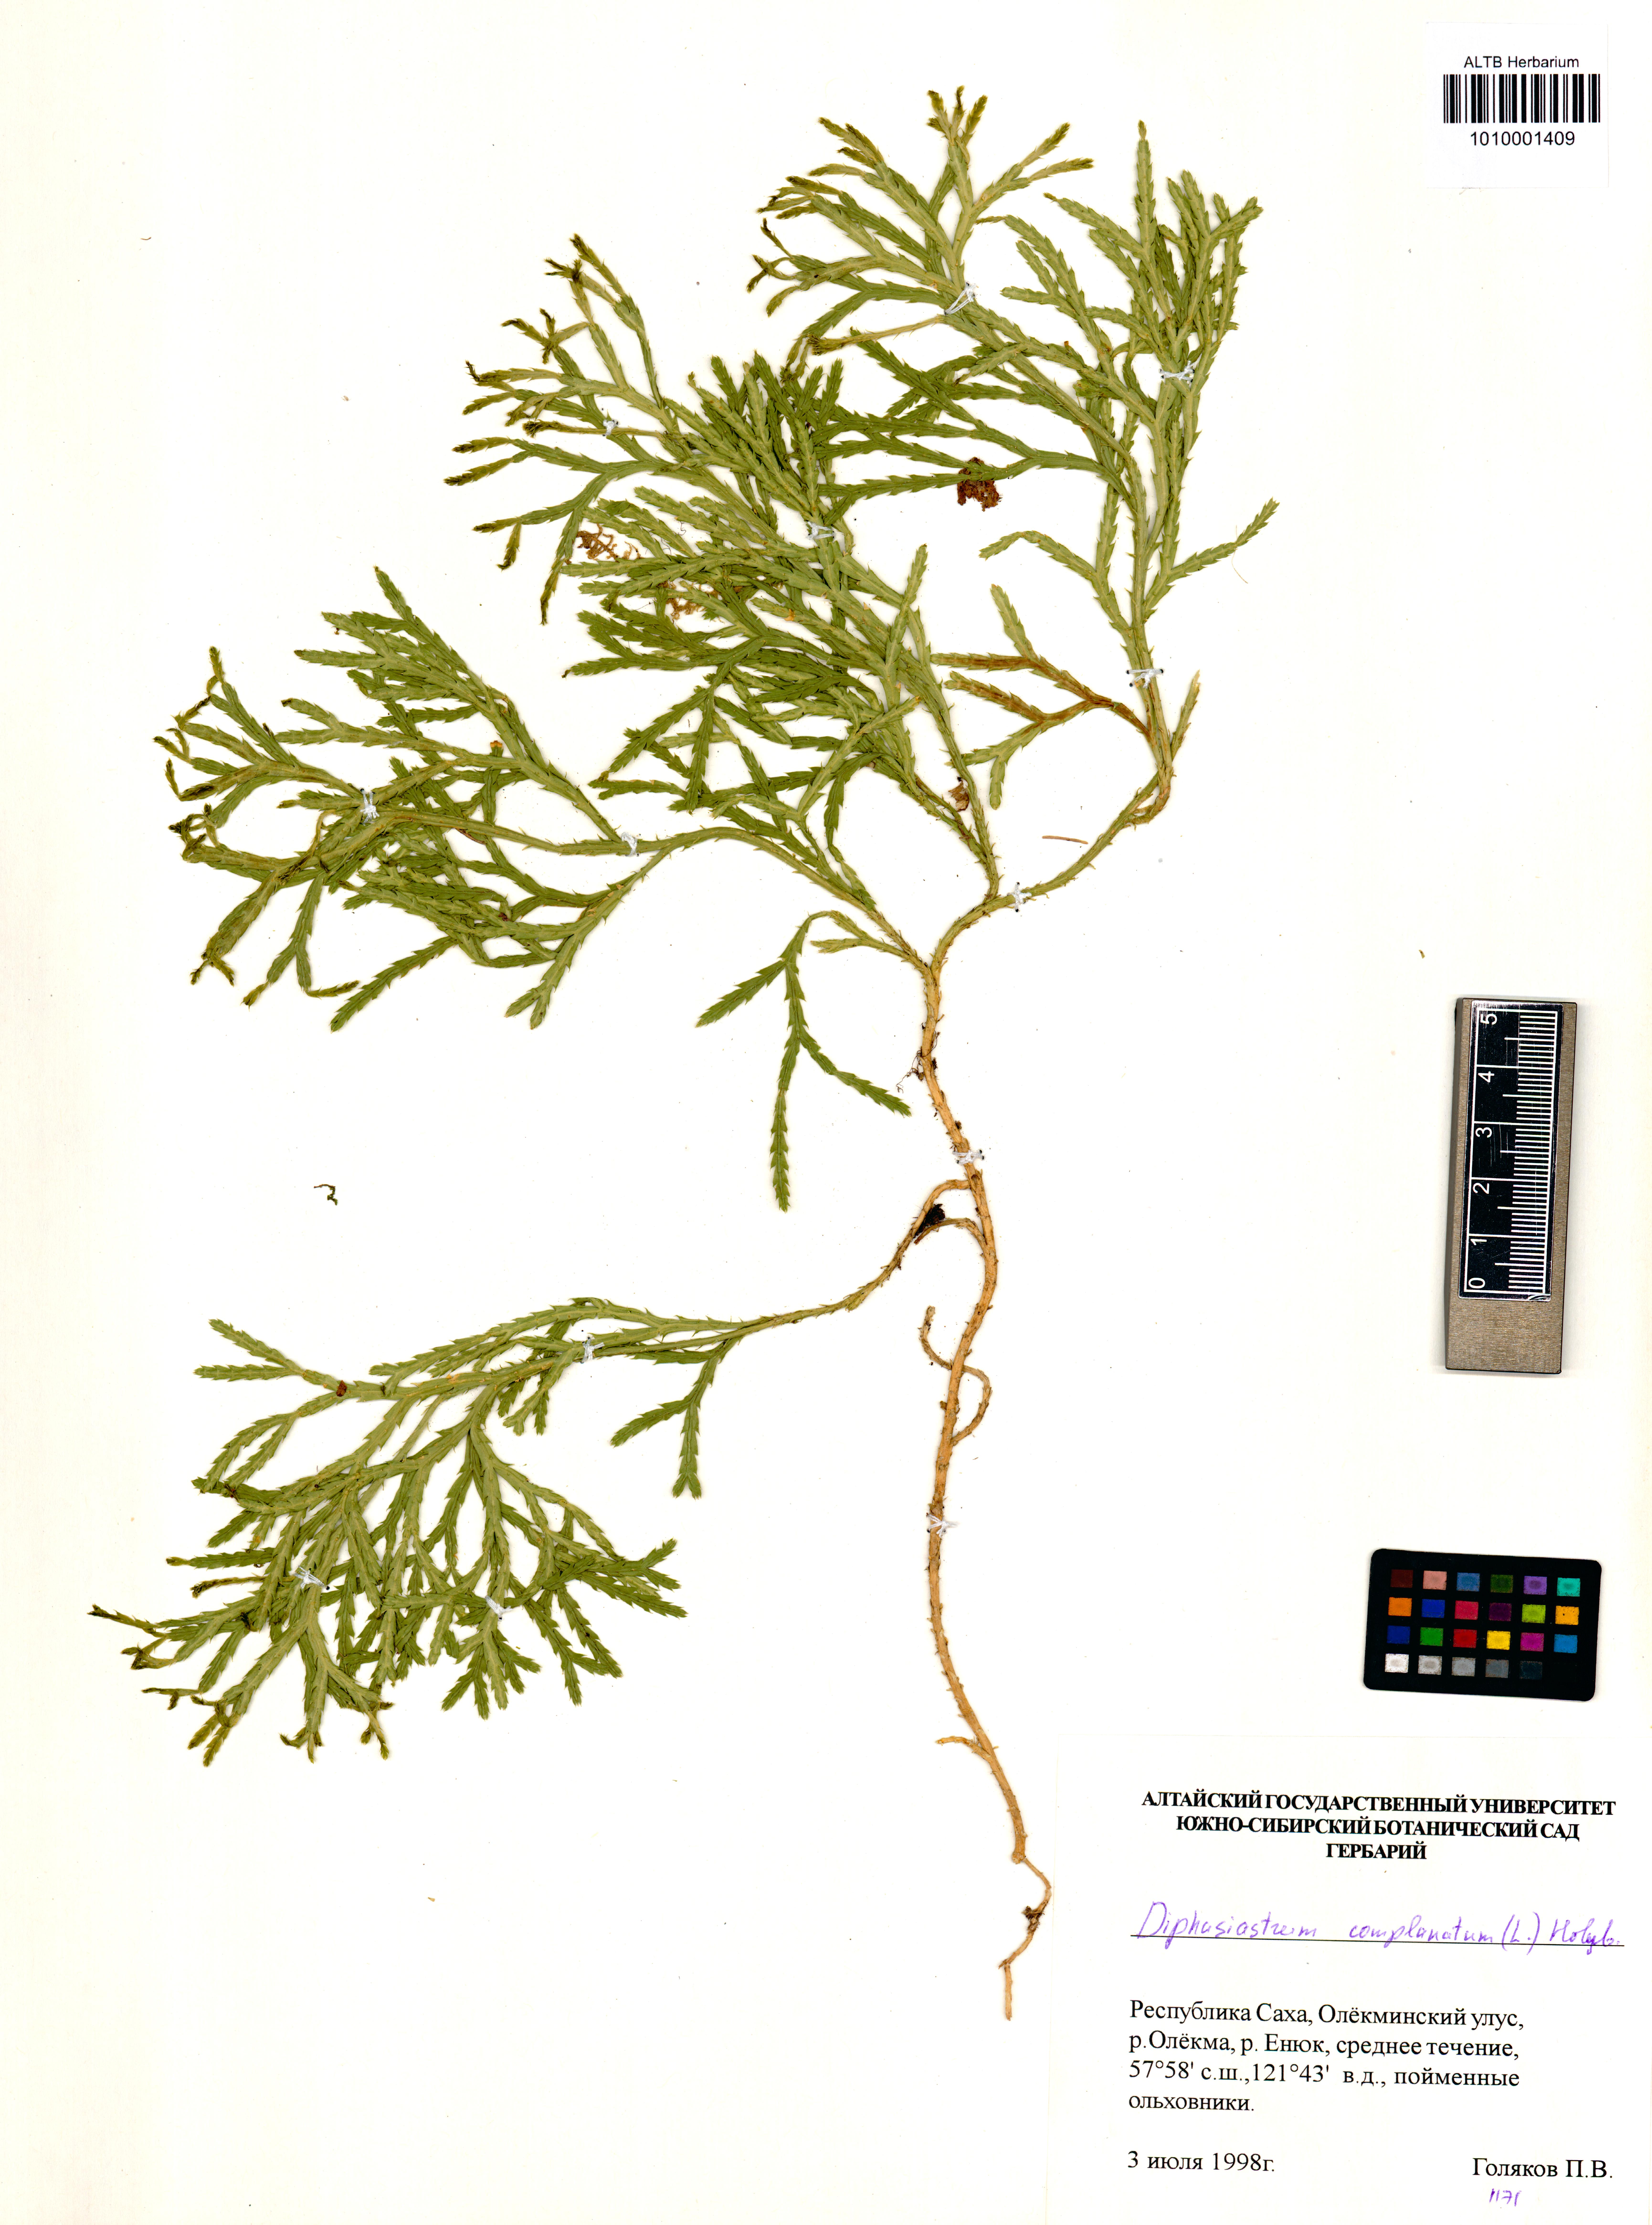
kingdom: Plantae
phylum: Tracheophyta
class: Lycopodiopsida
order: Lycopodiales
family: Lycopodiaceae
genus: Diphasiastrum
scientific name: Diphasiastrum complanatum
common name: Northern running-pine
